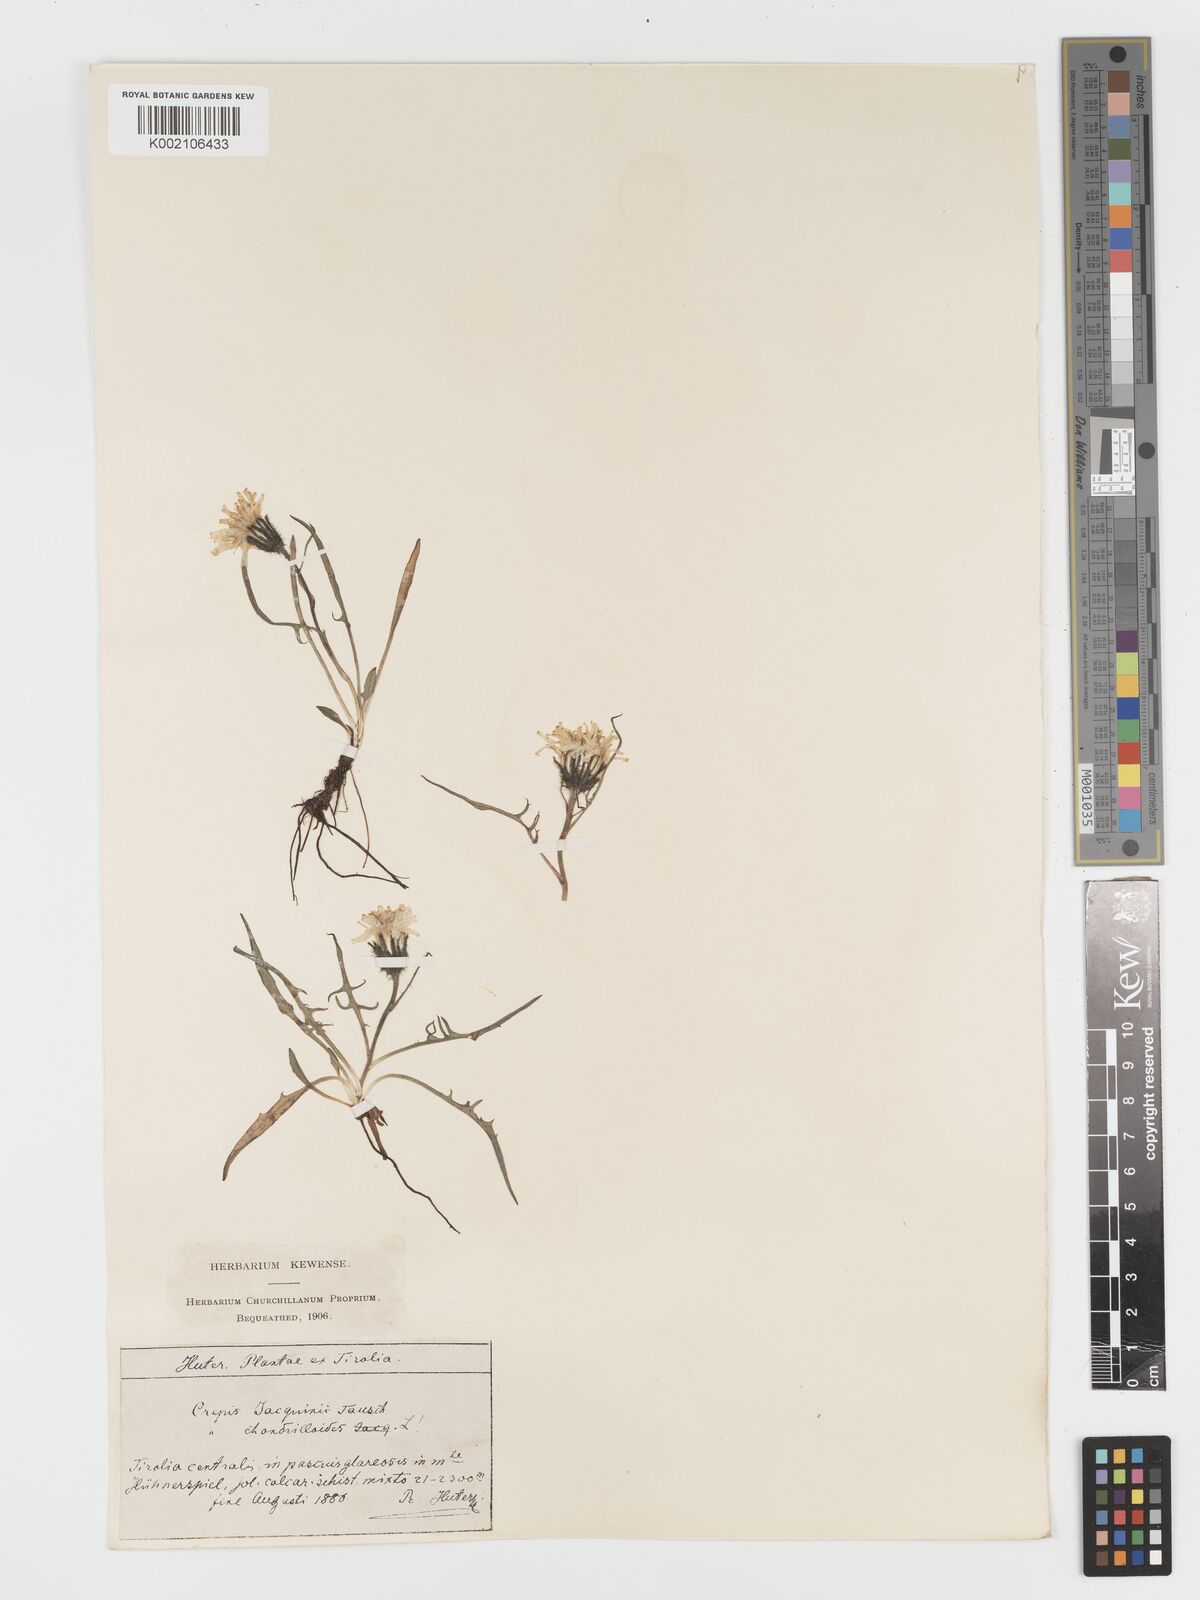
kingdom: Plantae
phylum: Tracheophyta
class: Magnoliopsida
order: Asterales
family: Asteraceae
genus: Crepis
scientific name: Crepis jacquinii
